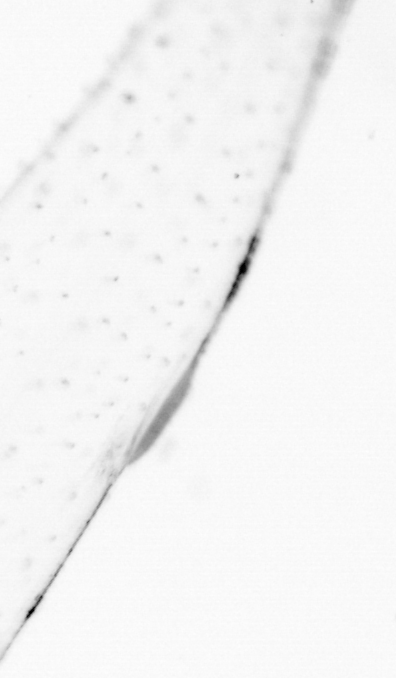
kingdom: Chromista
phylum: Ochrophyta
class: Bacillariophyceae
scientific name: Bacillariophyceae
